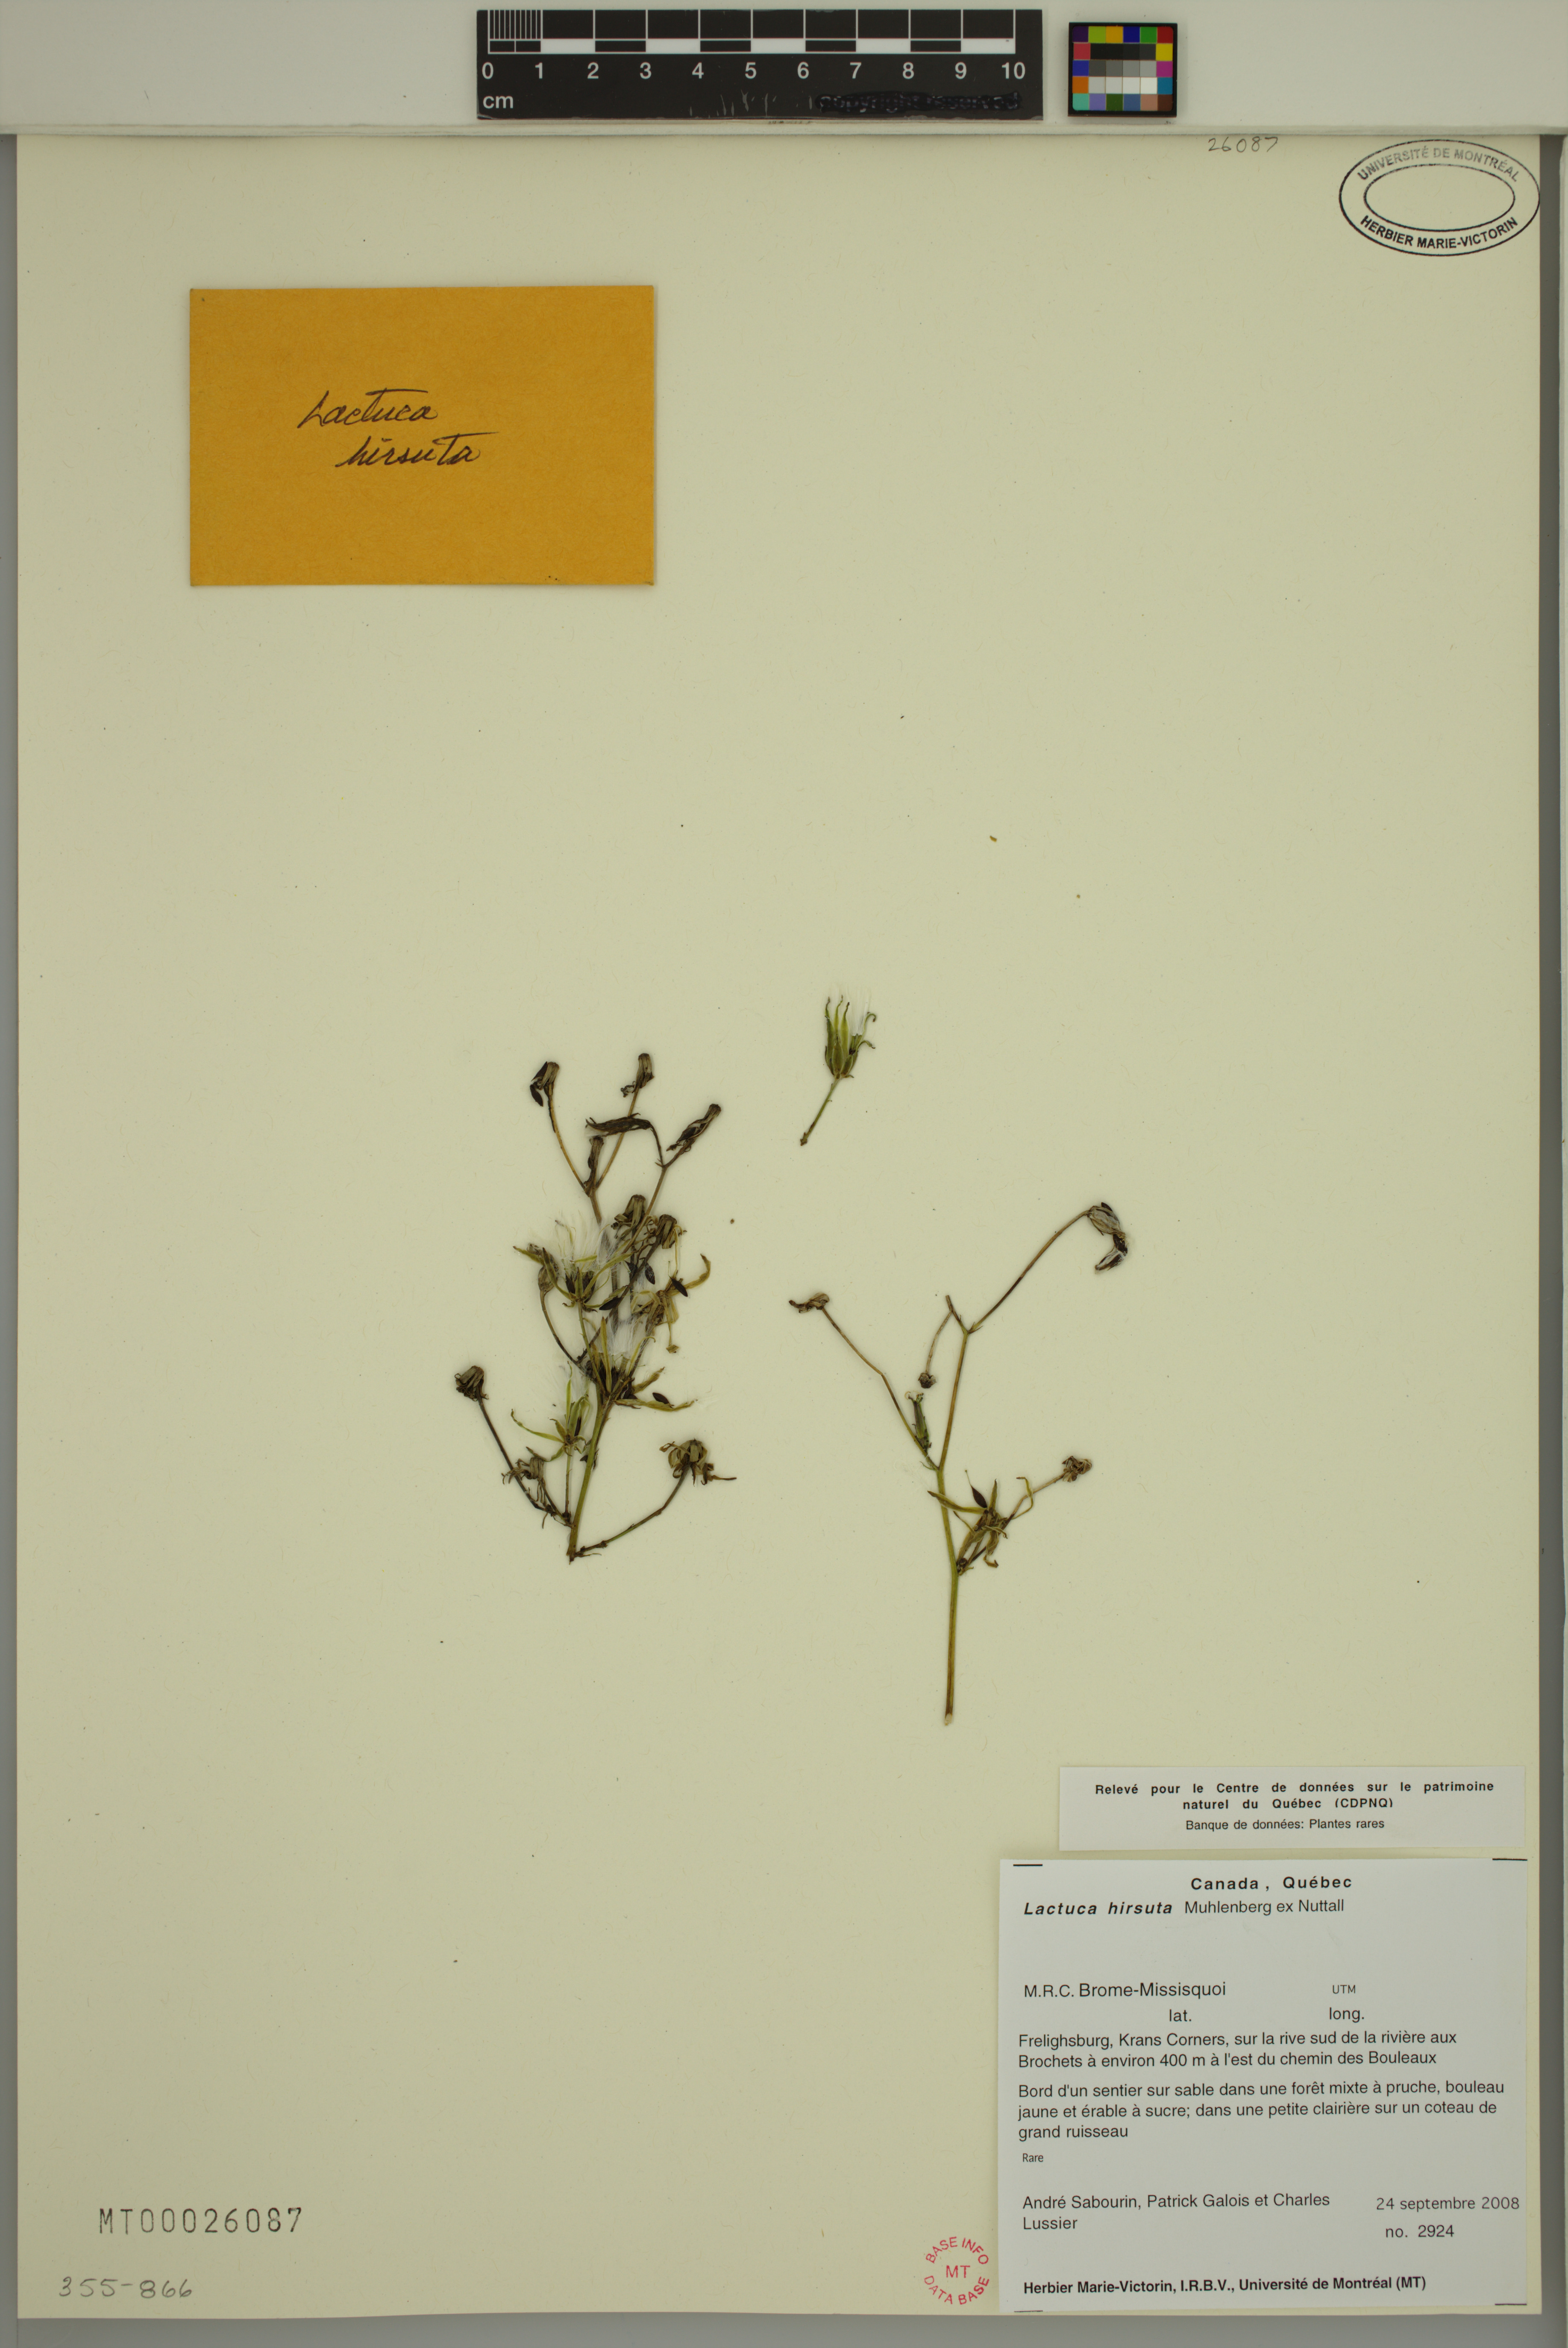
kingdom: Plantae
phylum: Tracheophyta
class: Magnoliopsida
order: Asterales
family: Asteraceae
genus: Lactuca
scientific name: Lactuca hirsuta
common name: Hairy lettuce
